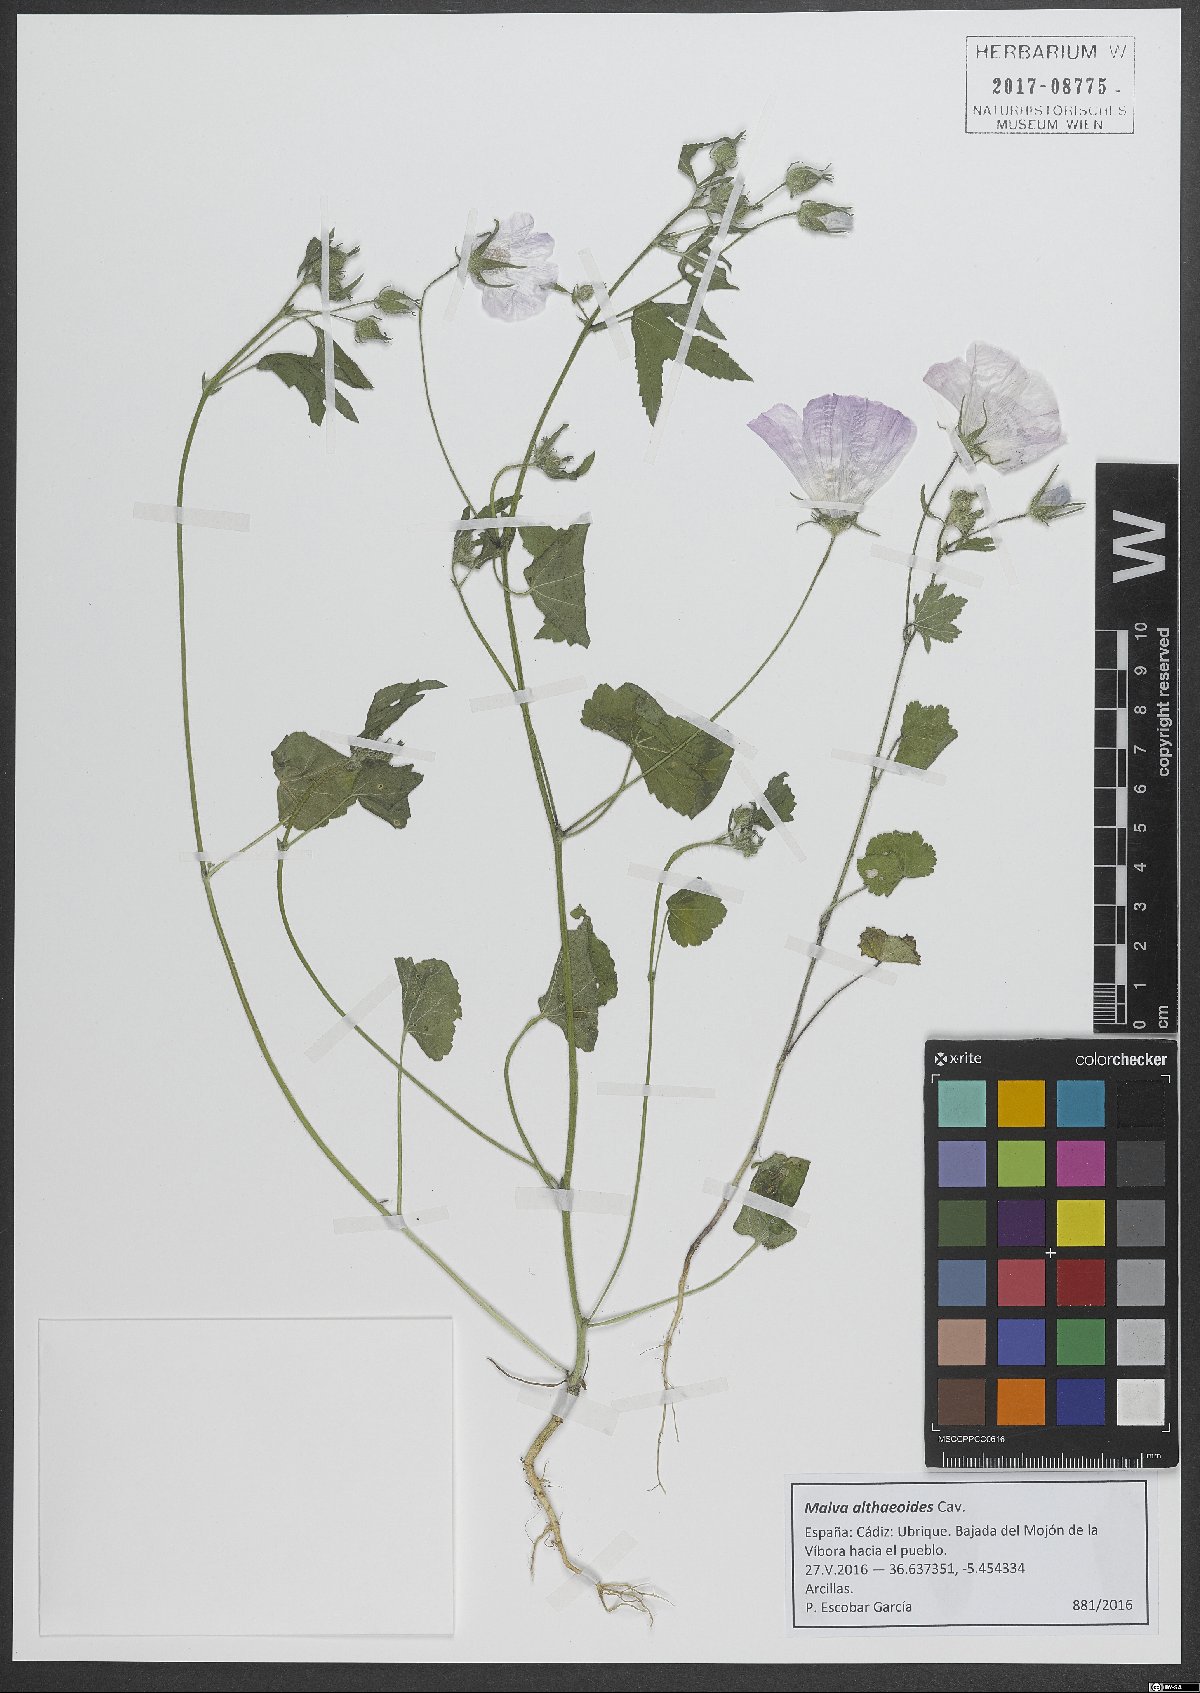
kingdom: Plantae
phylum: Tracheophyta
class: Magnoliopsida
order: Malvales
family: Malvaceae
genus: Malva
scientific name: Malva cretica
